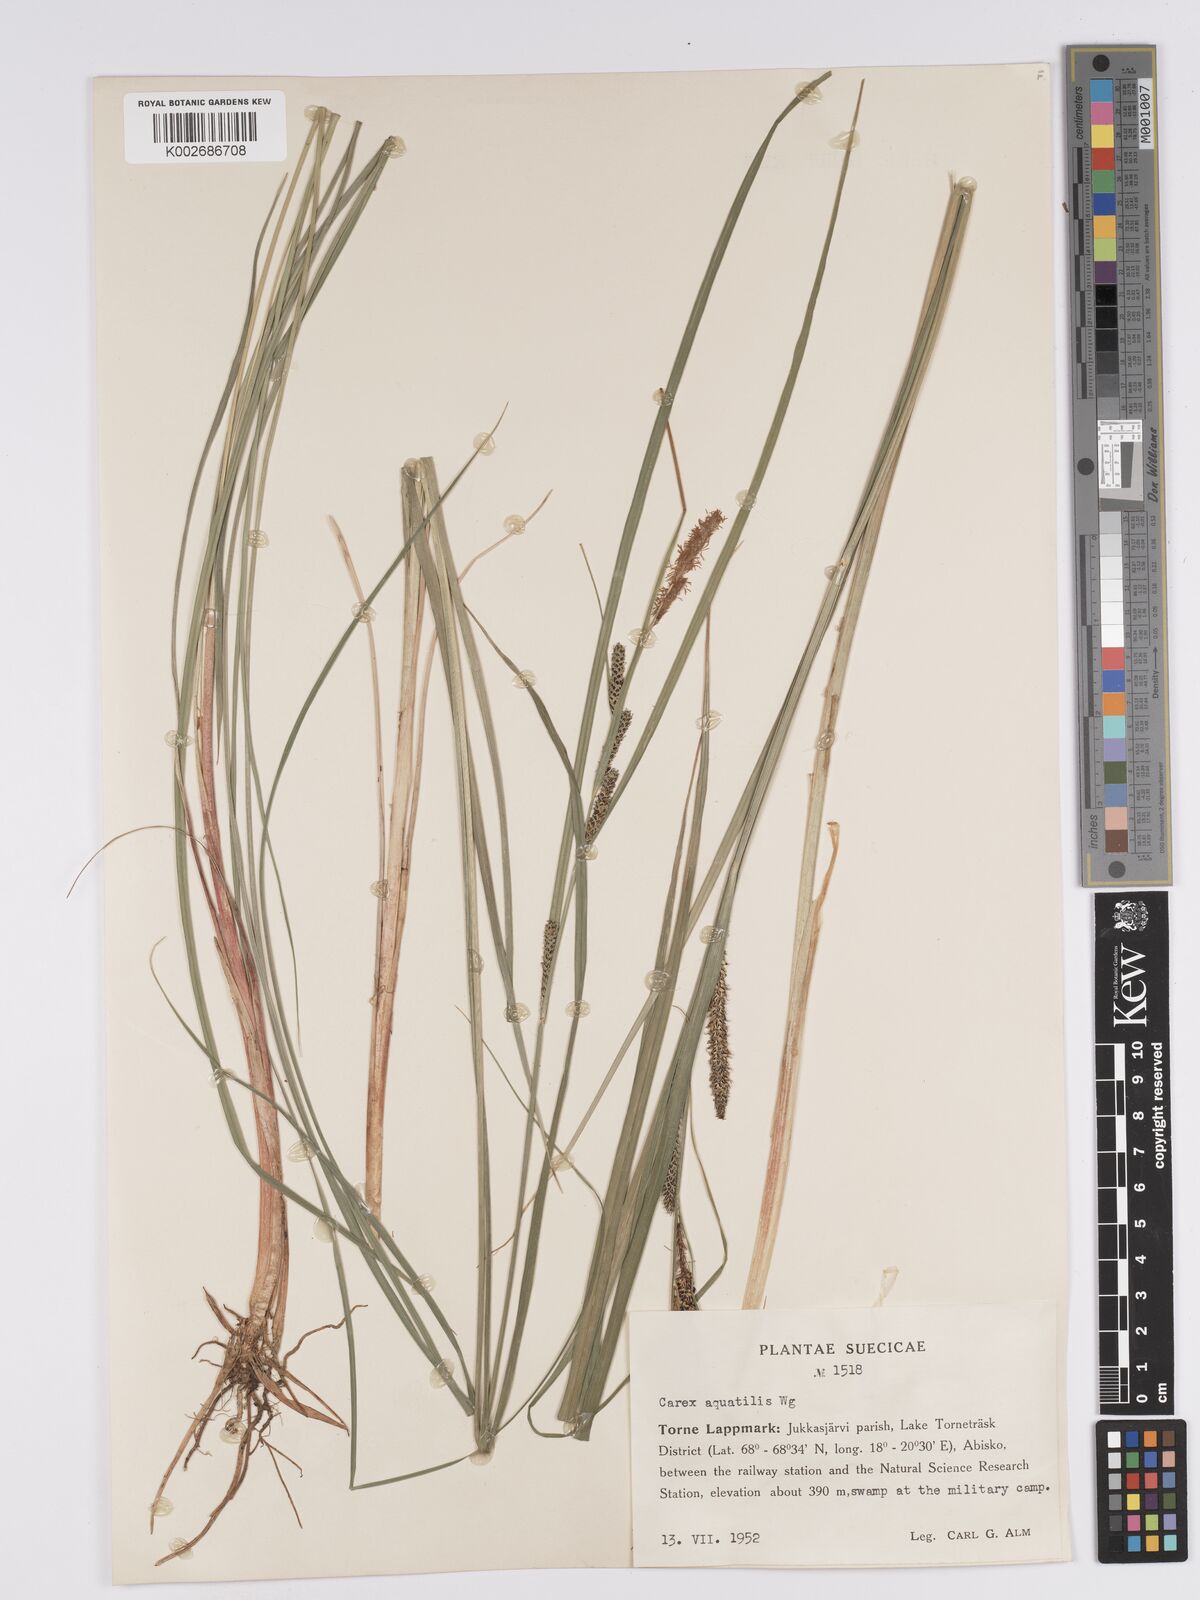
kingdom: Plantae
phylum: Tracheophyta
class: Liliopsida
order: Poales
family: Cyperaceae
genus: Carex
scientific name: Carex aquatilis
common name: Water sedge
